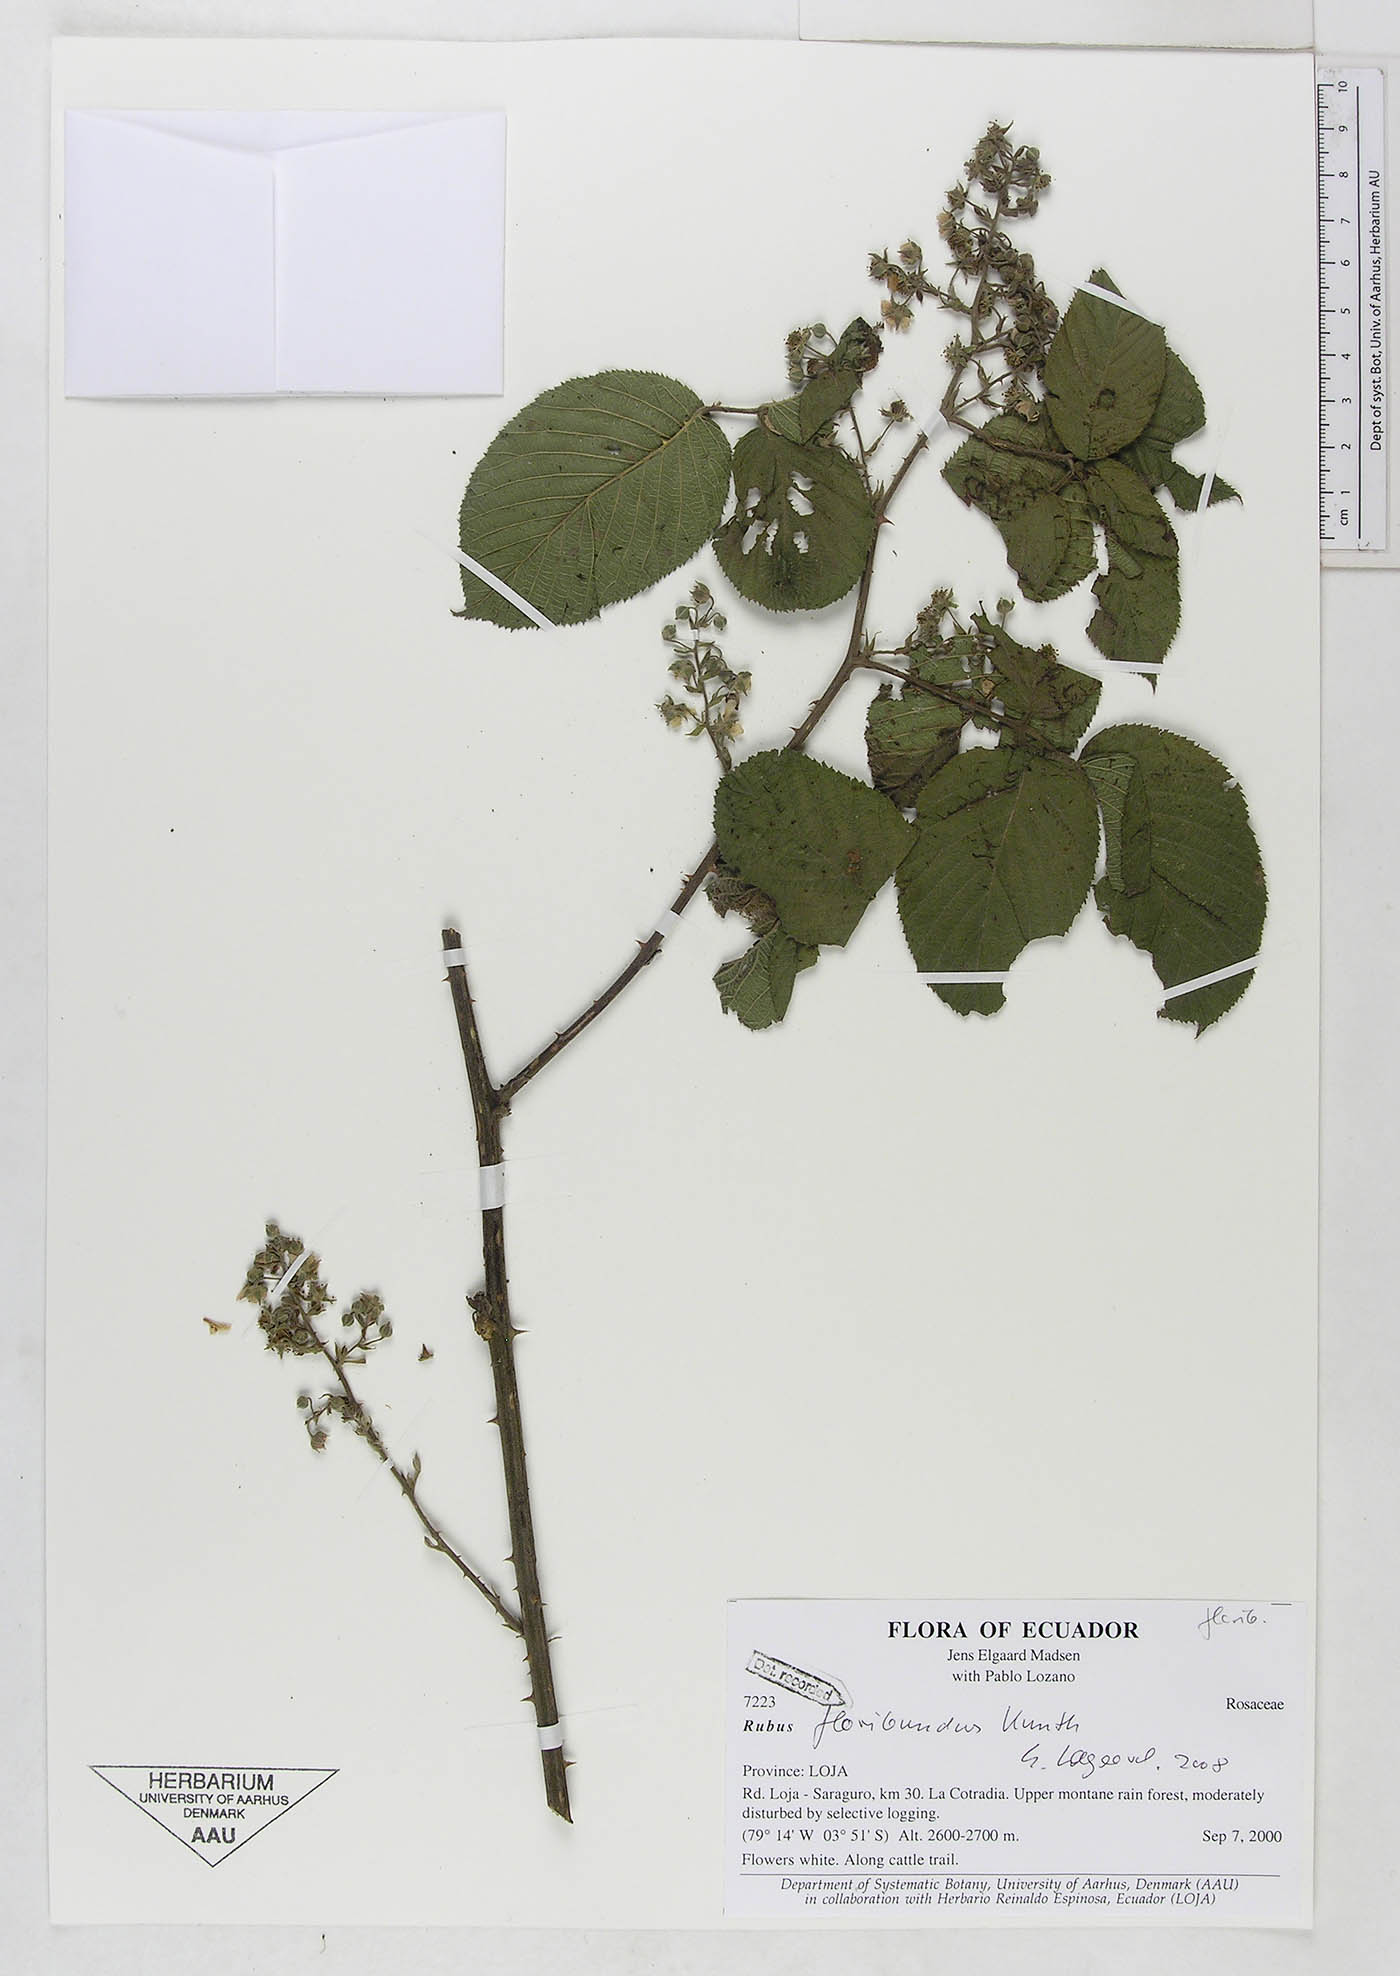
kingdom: Plantae
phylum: Tracheophyta
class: Magnoliopsida
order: Rosales
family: Rosaceae
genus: Rubus
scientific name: Rubus floribundus
